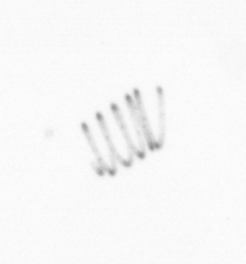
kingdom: Chromista
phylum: Ochrophyta
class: Bacillariophyceae
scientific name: Bacillariophyceae
